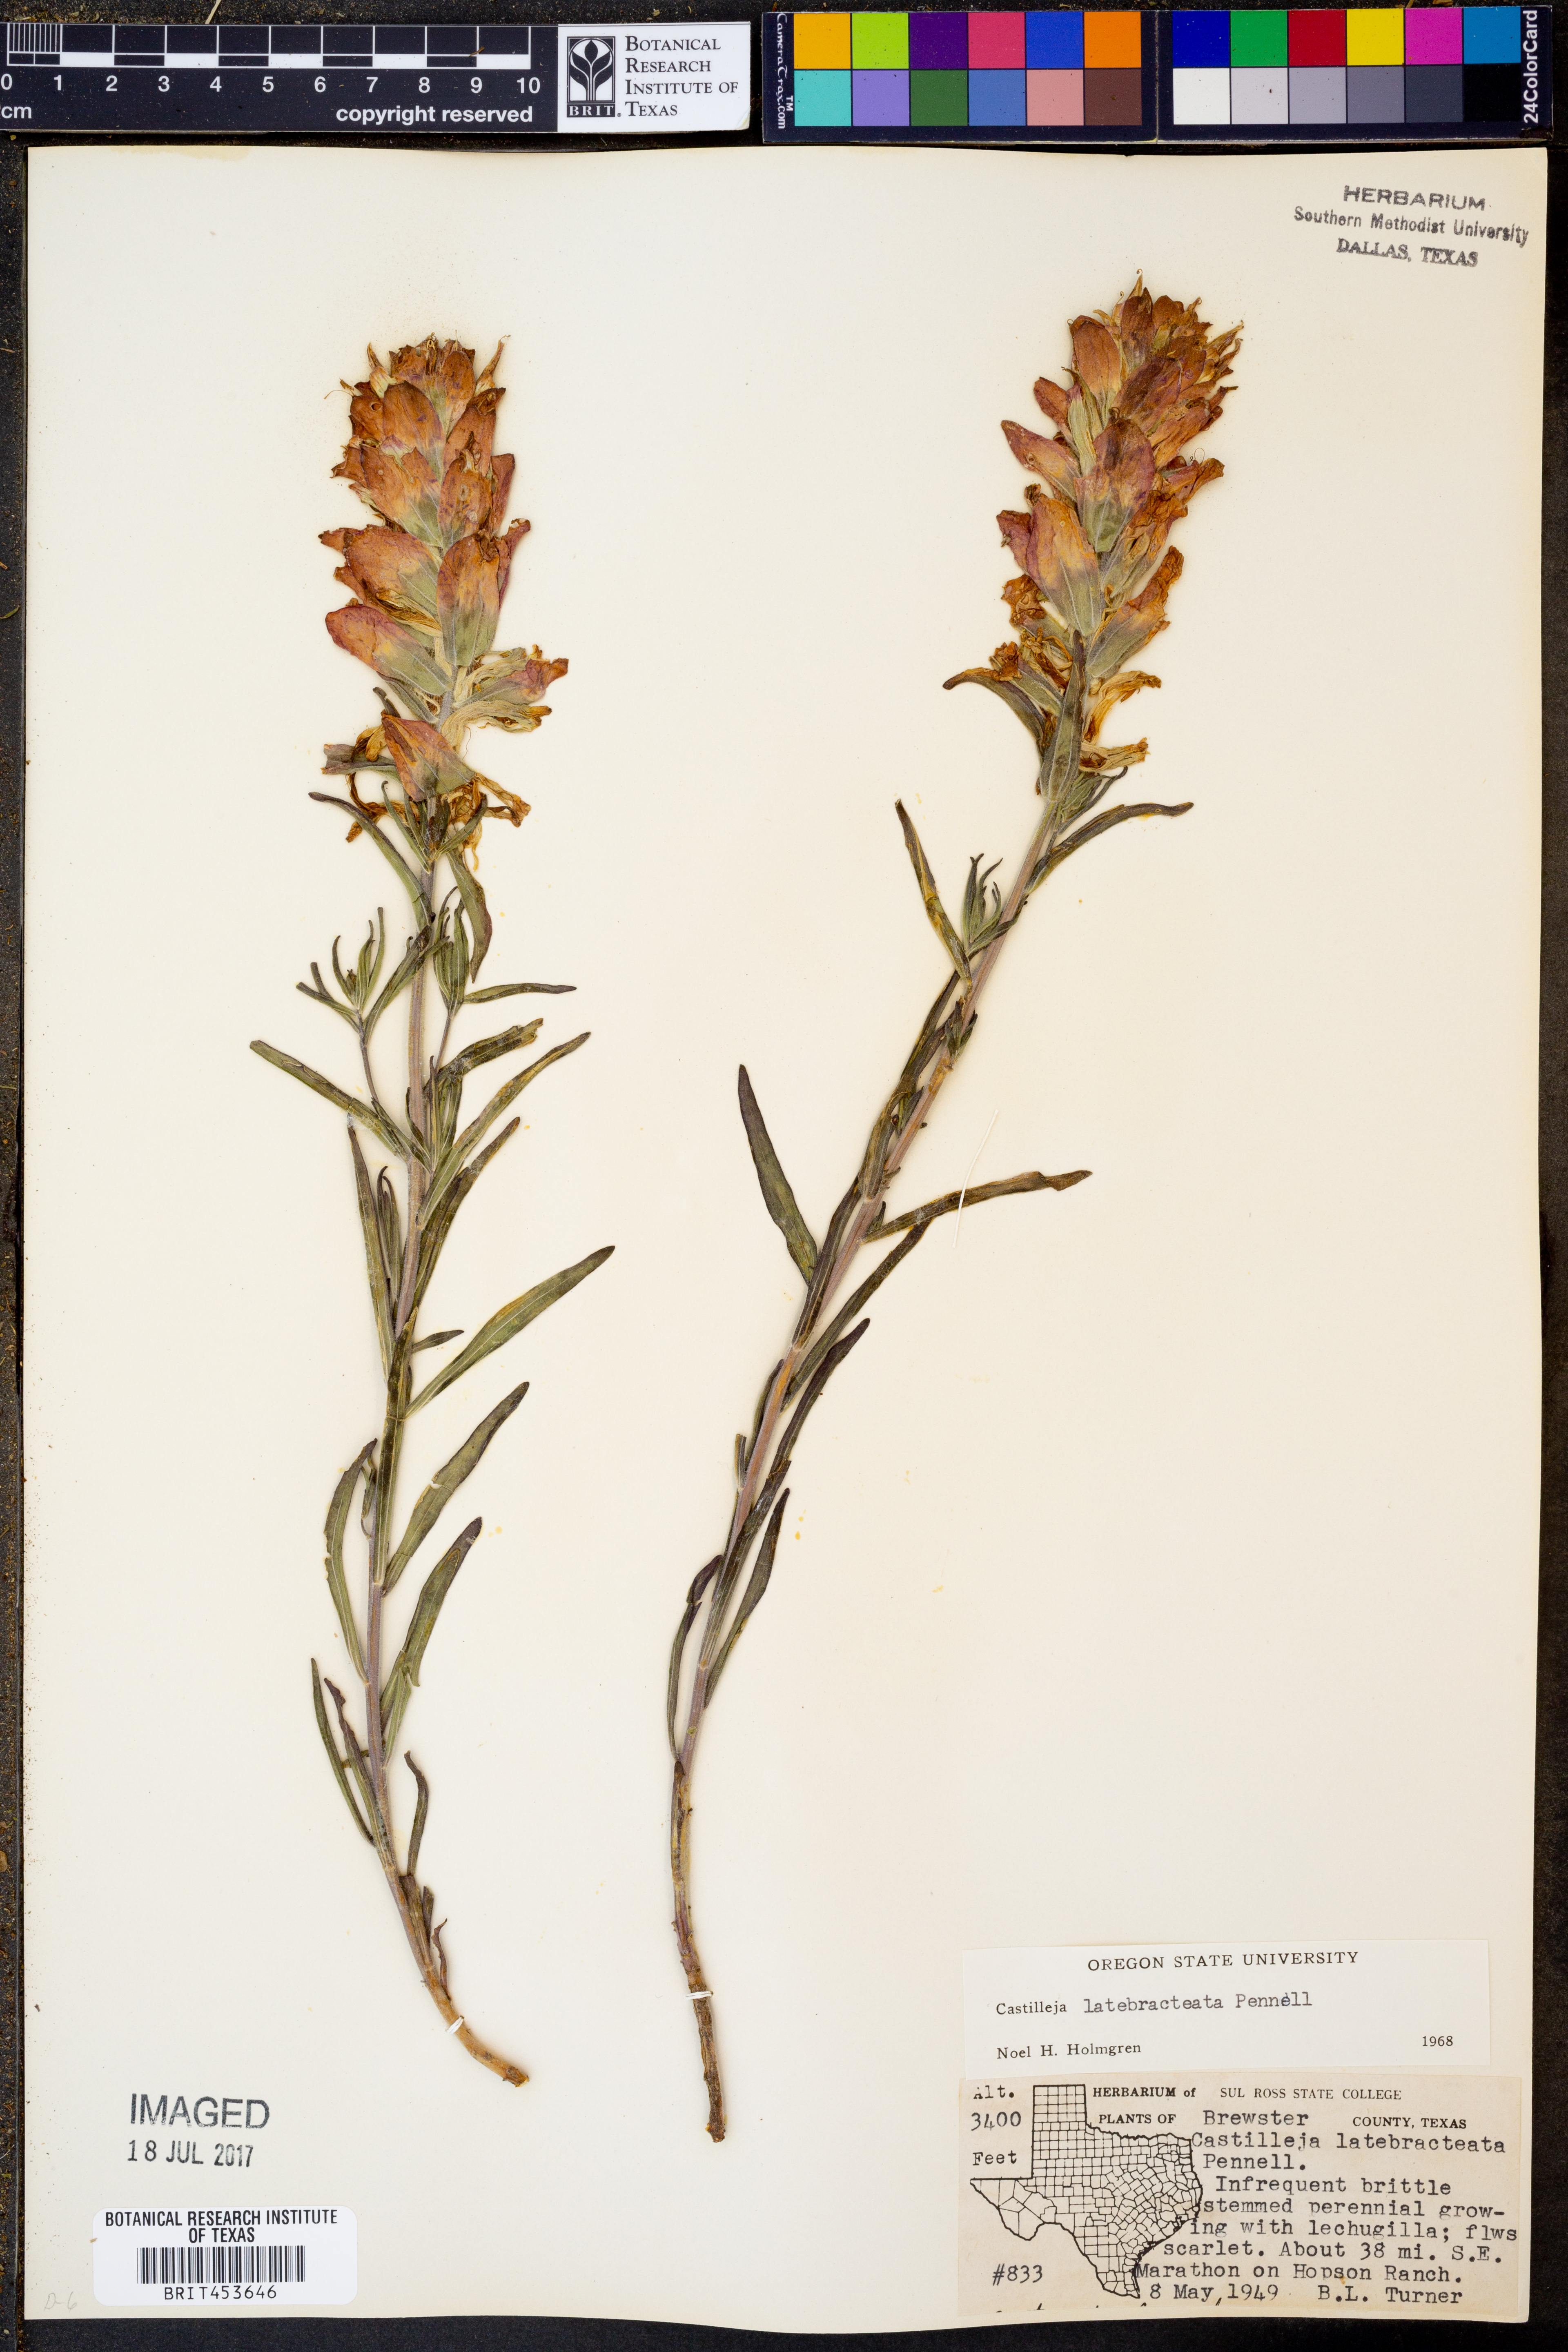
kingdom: Plantae
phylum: Tracheophyta
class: Magnoliopsida
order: Lamiales
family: Orobanchaceae
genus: Castilleja
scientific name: Castilleja rigida
